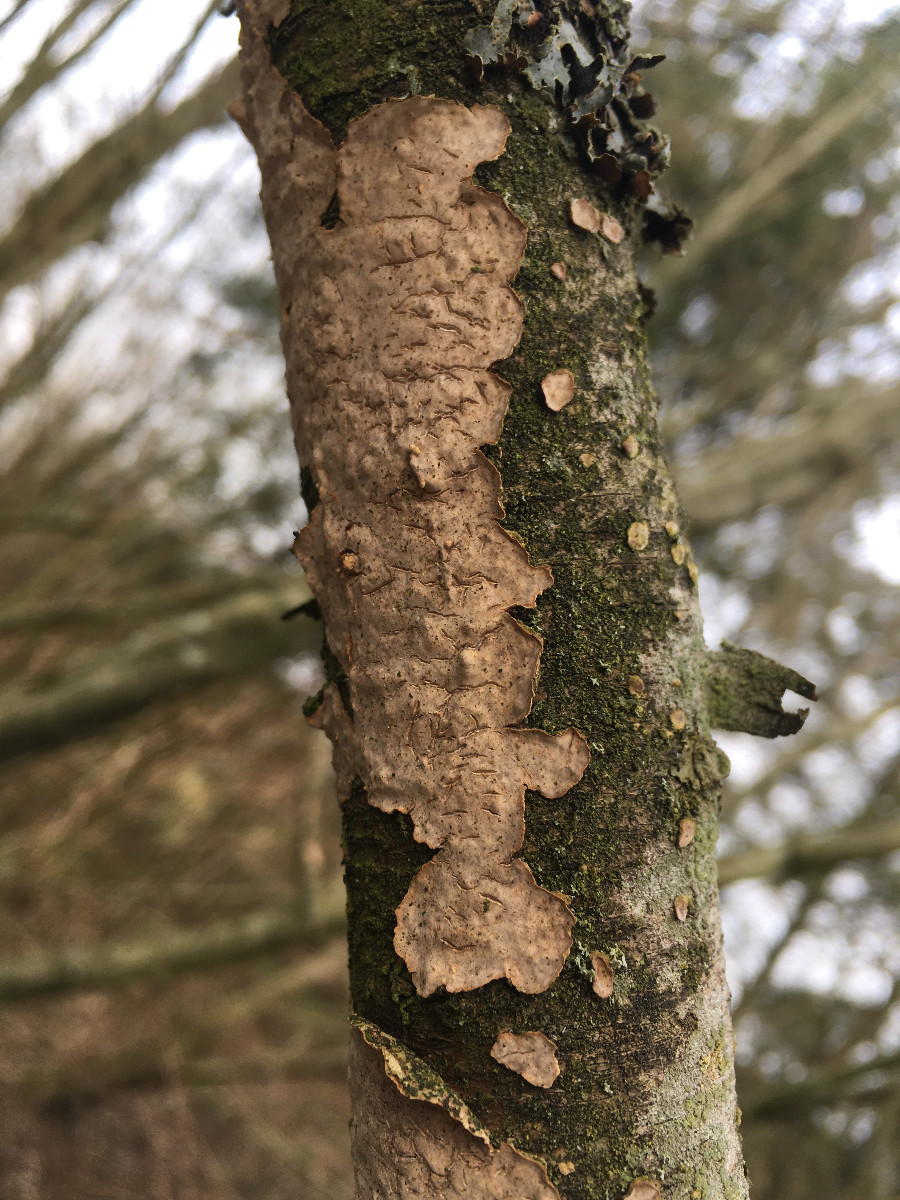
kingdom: Fungi
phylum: Basidiomycota
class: Agaricomycetes
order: Russulales
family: Peniophoraceae
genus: Peniophora
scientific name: Peniophora incarnata
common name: laksefarvet voksskind
